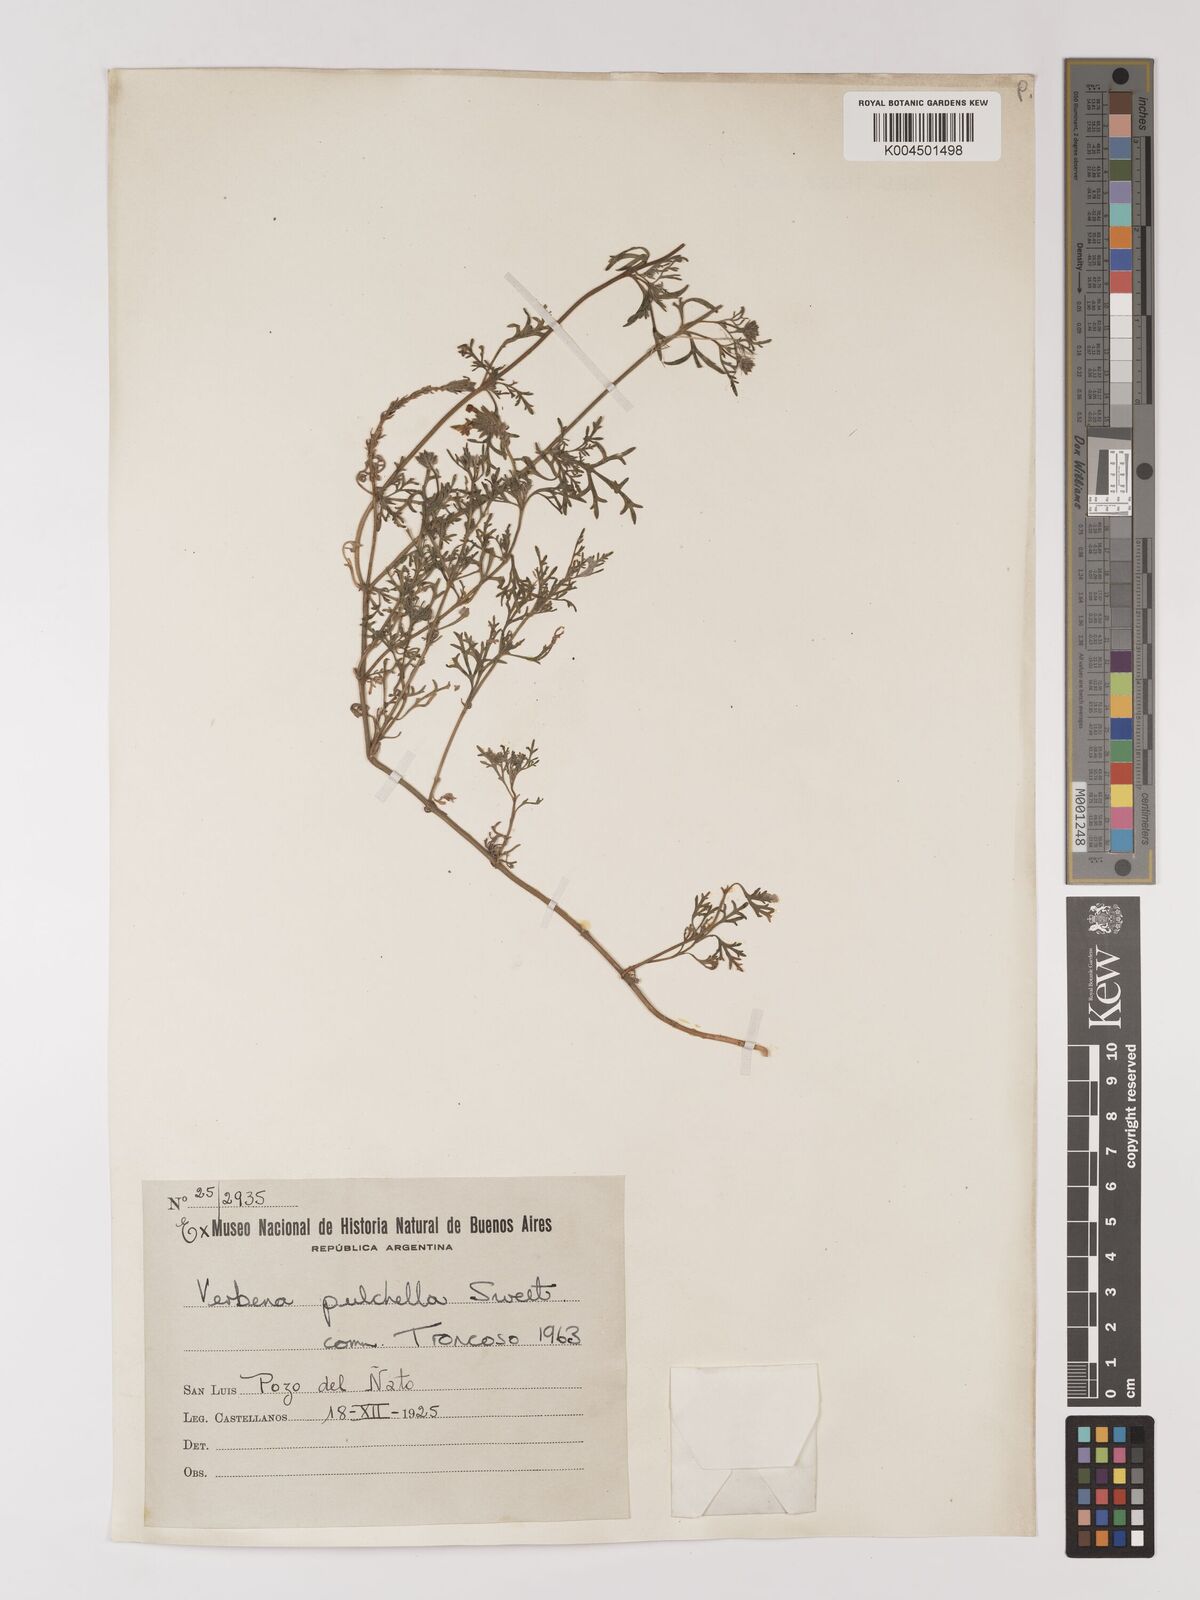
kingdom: Plantae
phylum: Tracheophyta
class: Magnoliopsida
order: Lamiales
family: Verbenaceae
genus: Verbena
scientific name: Verbena tenera
